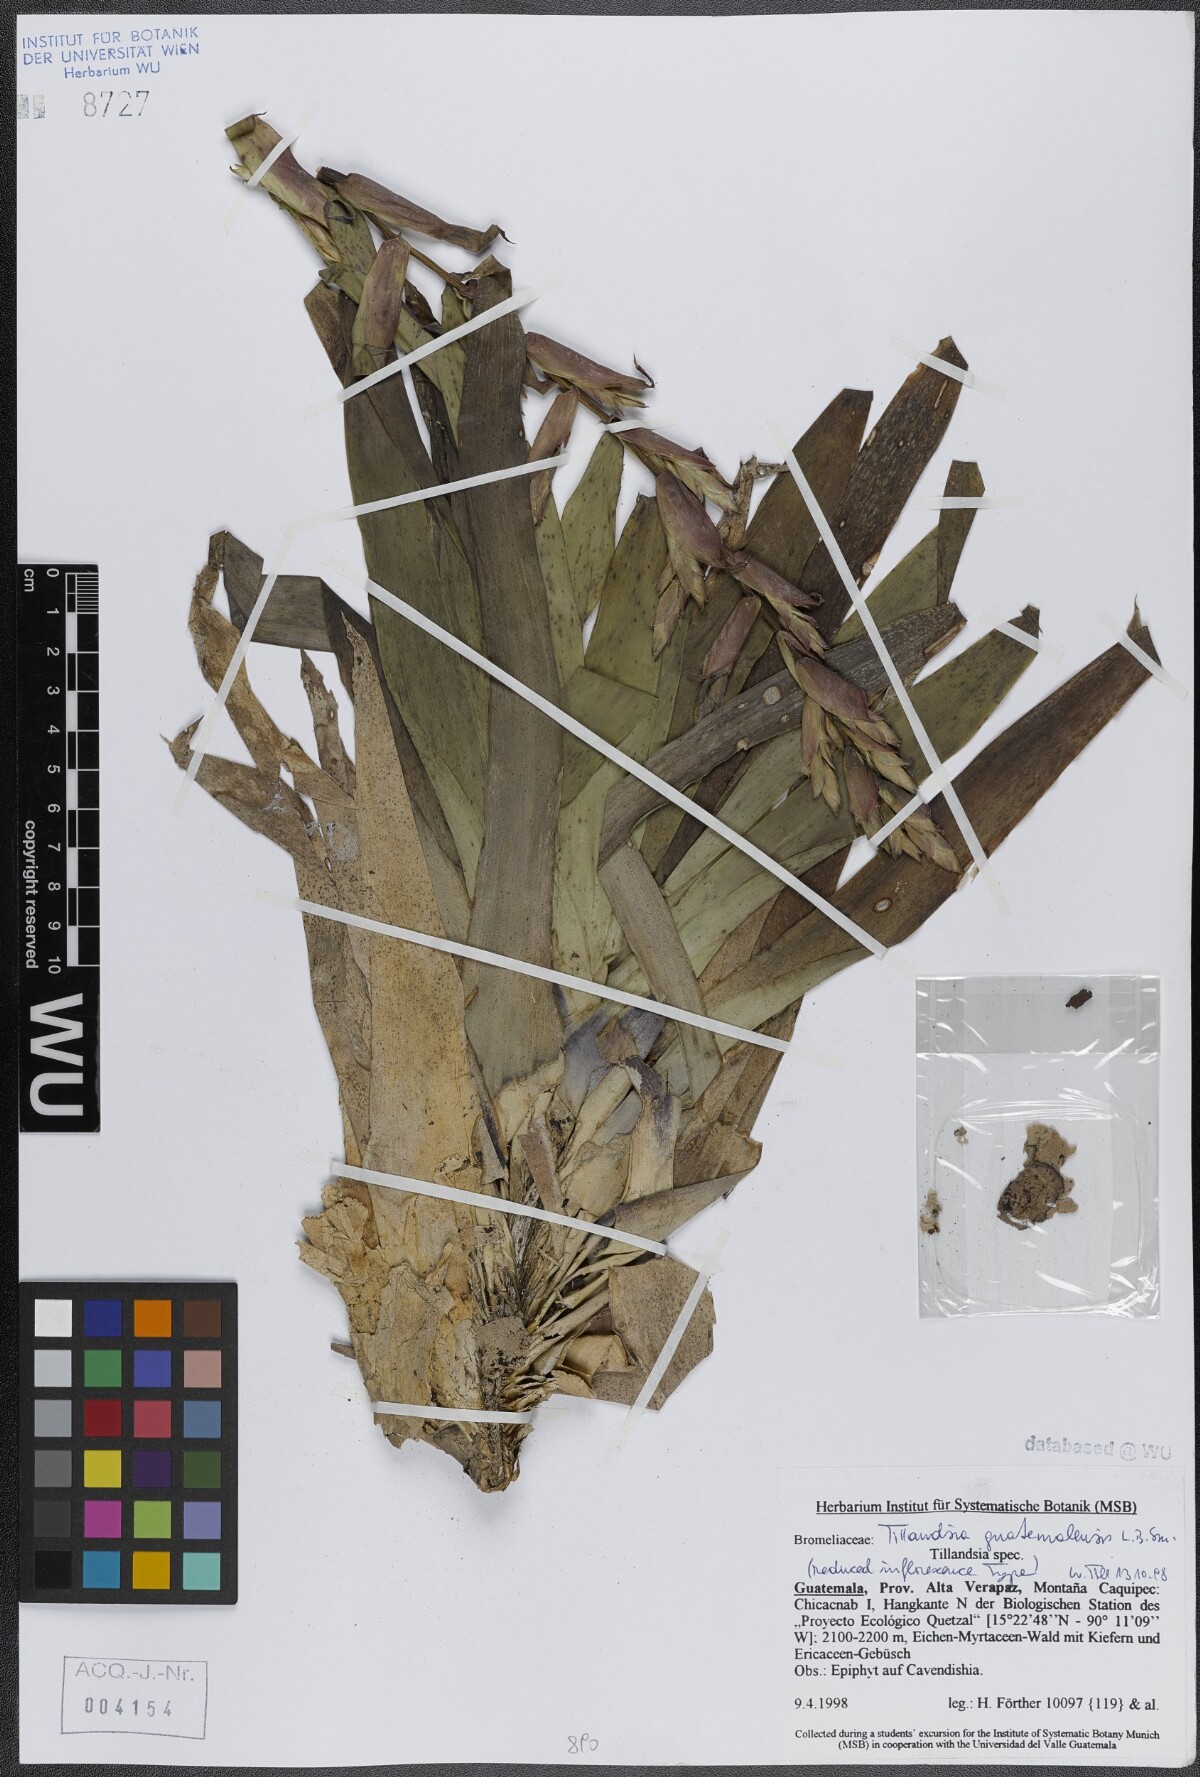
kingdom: Plantae
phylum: Tracheophyta
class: Liliopsida
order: Poales
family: Bromeliaceae
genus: Tillandsia
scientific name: Tillandsia guatemalensis
